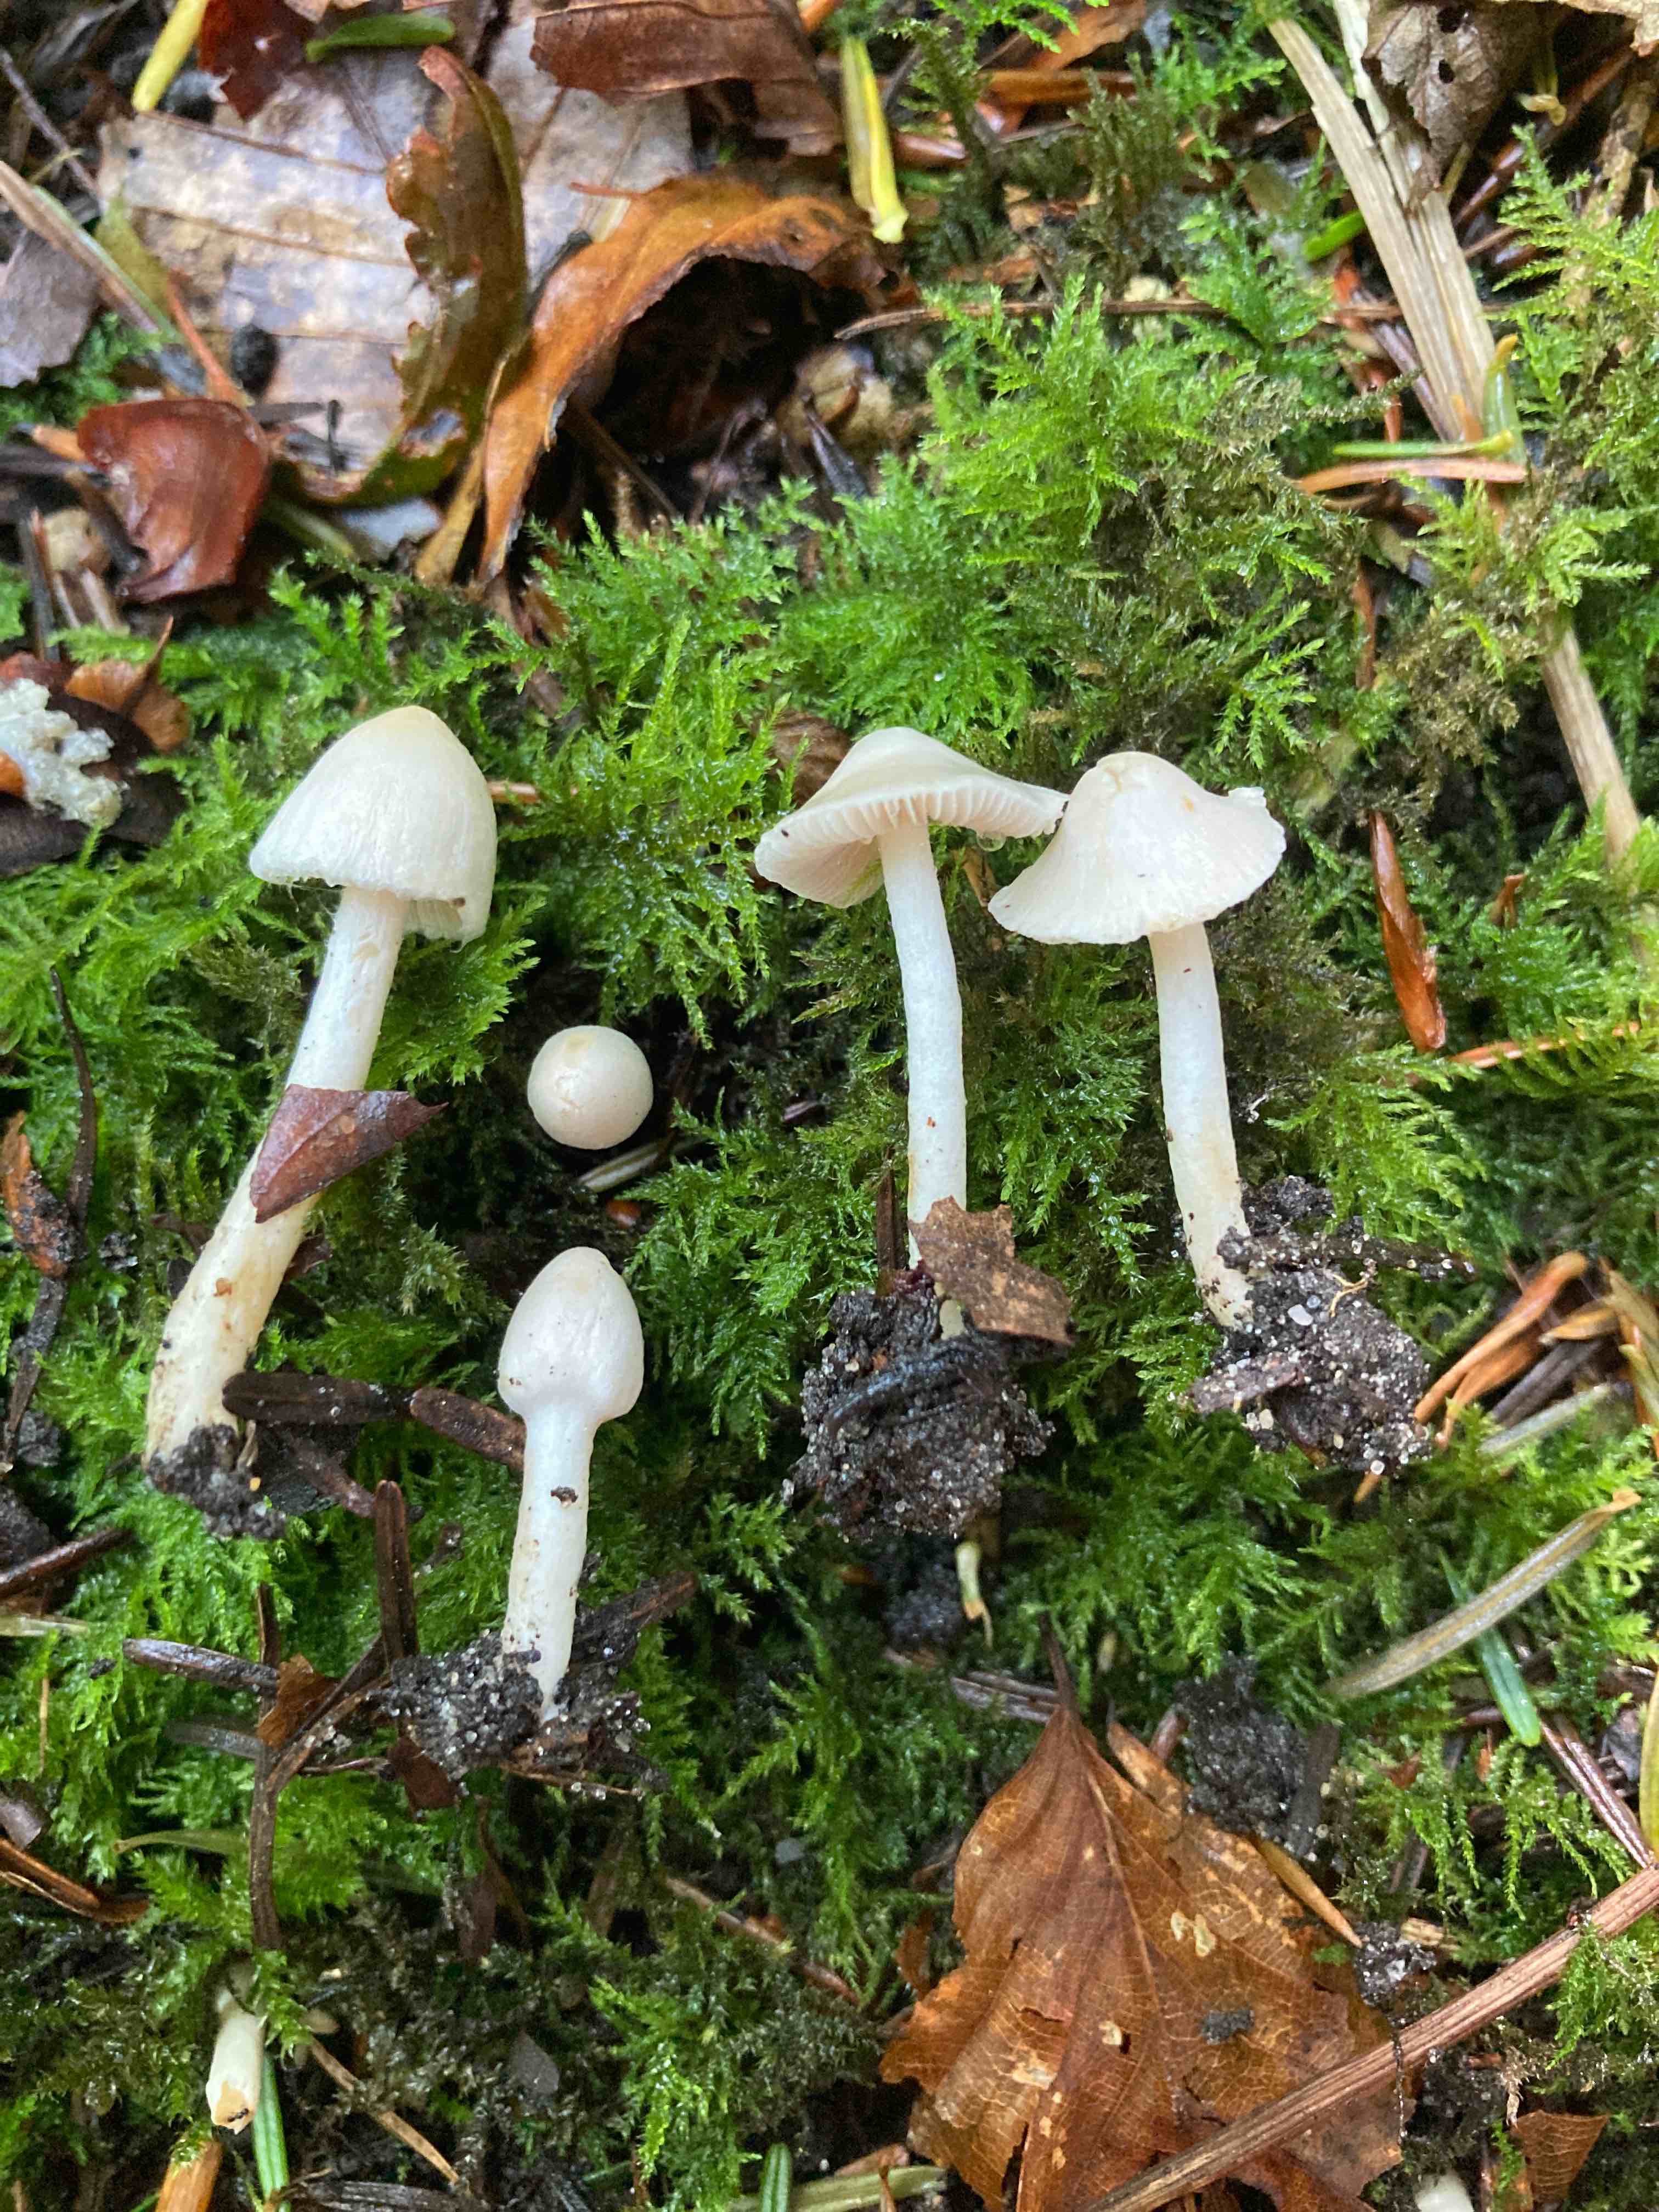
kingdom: Fungi
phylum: Basidiomycota
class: Agaricomycetes
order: Agaricales
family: Inocybaceae
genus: Inocybe
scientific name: Inocybe
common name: almindelig trævlhat
